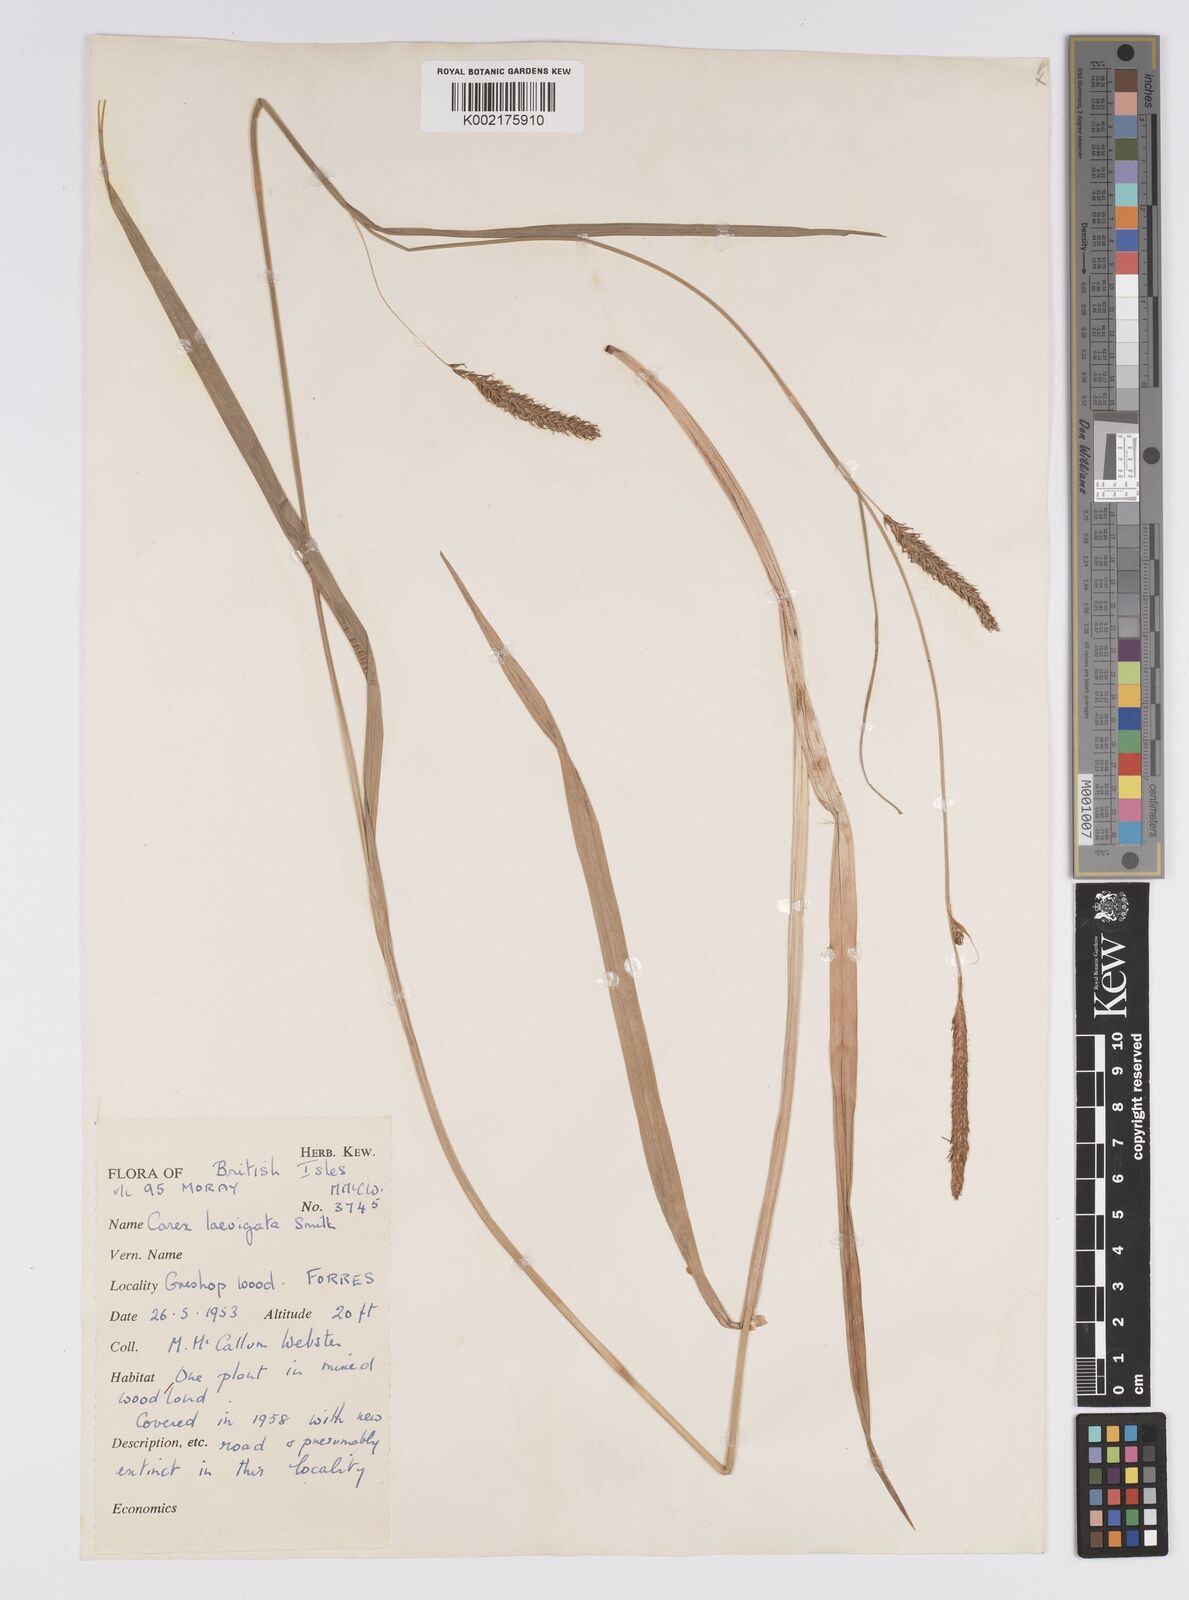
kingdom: Plantae
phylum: Tracheophyta
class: Liliopsida
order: Poales
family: Cyperaceae
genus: Carex
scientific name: Carex laevigata
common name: Smooth-stalked sedge
